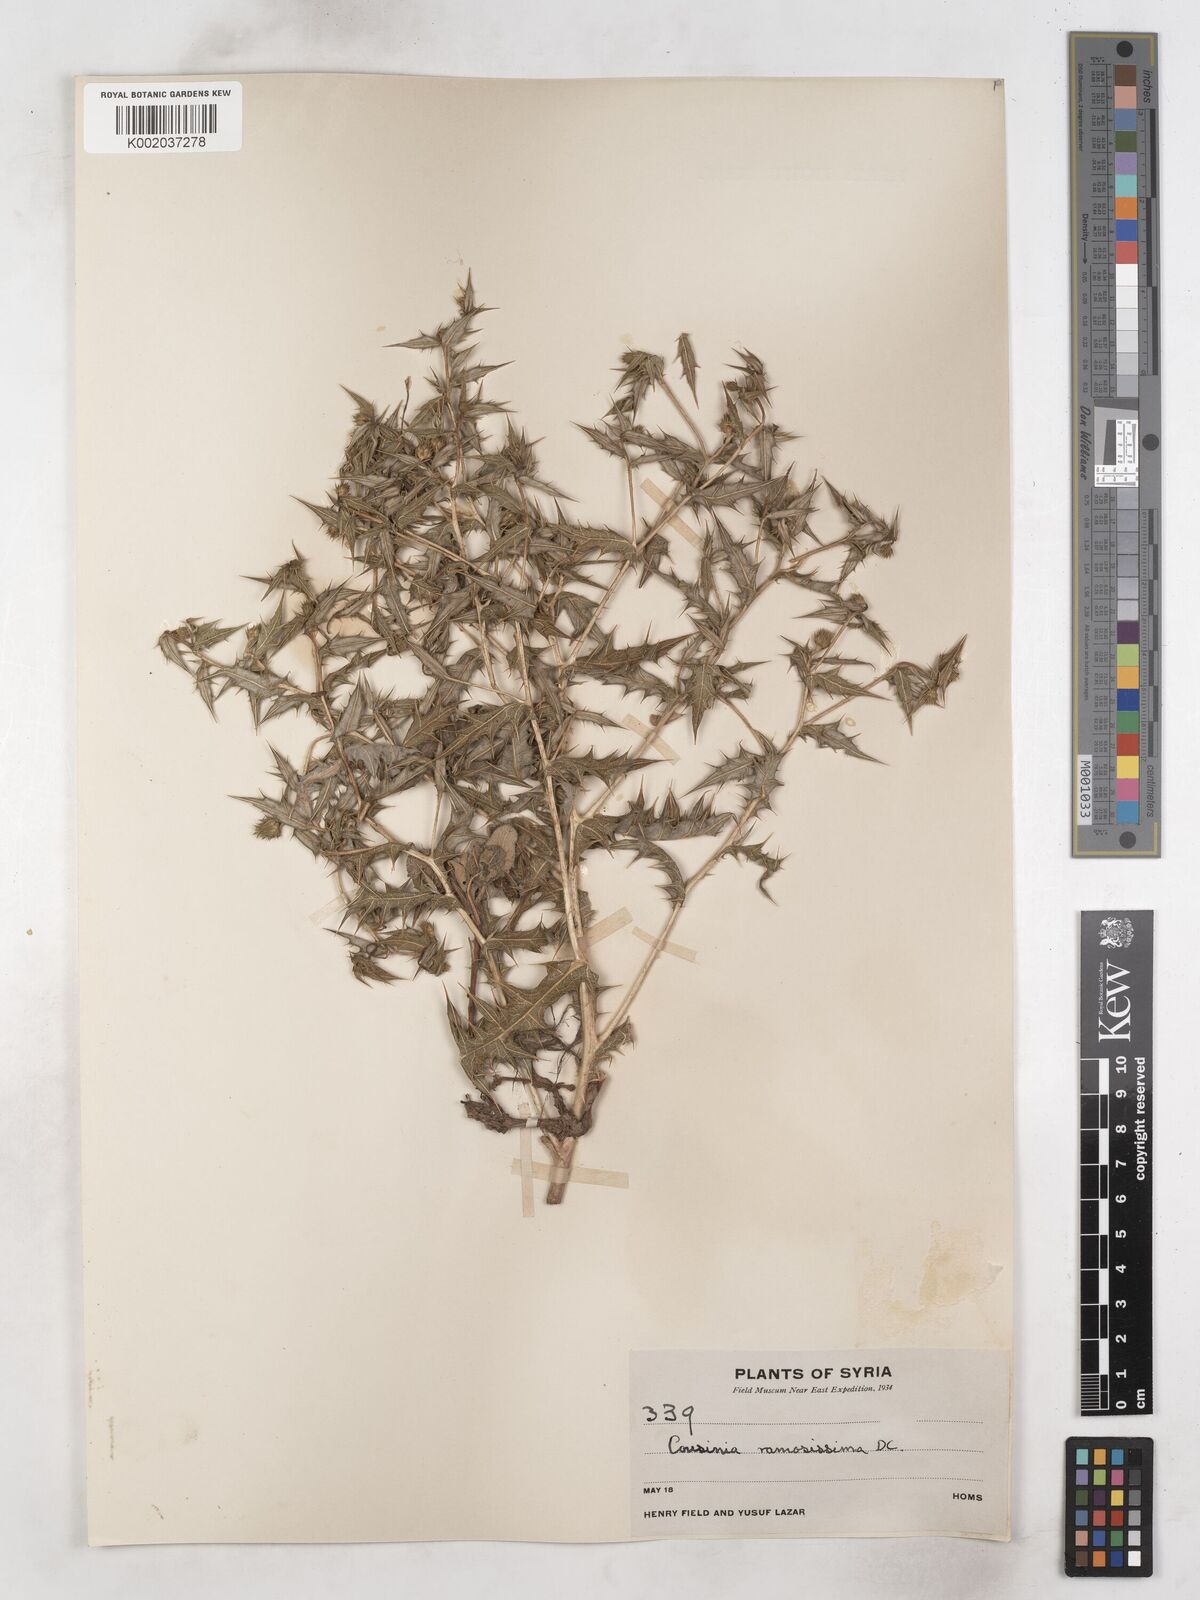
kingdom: Plantae
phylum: Tracheophyta
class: Magnoliopsida
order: Asterales
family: Asteraceae
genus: Cousinia
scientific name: Cousinia ramosissima
